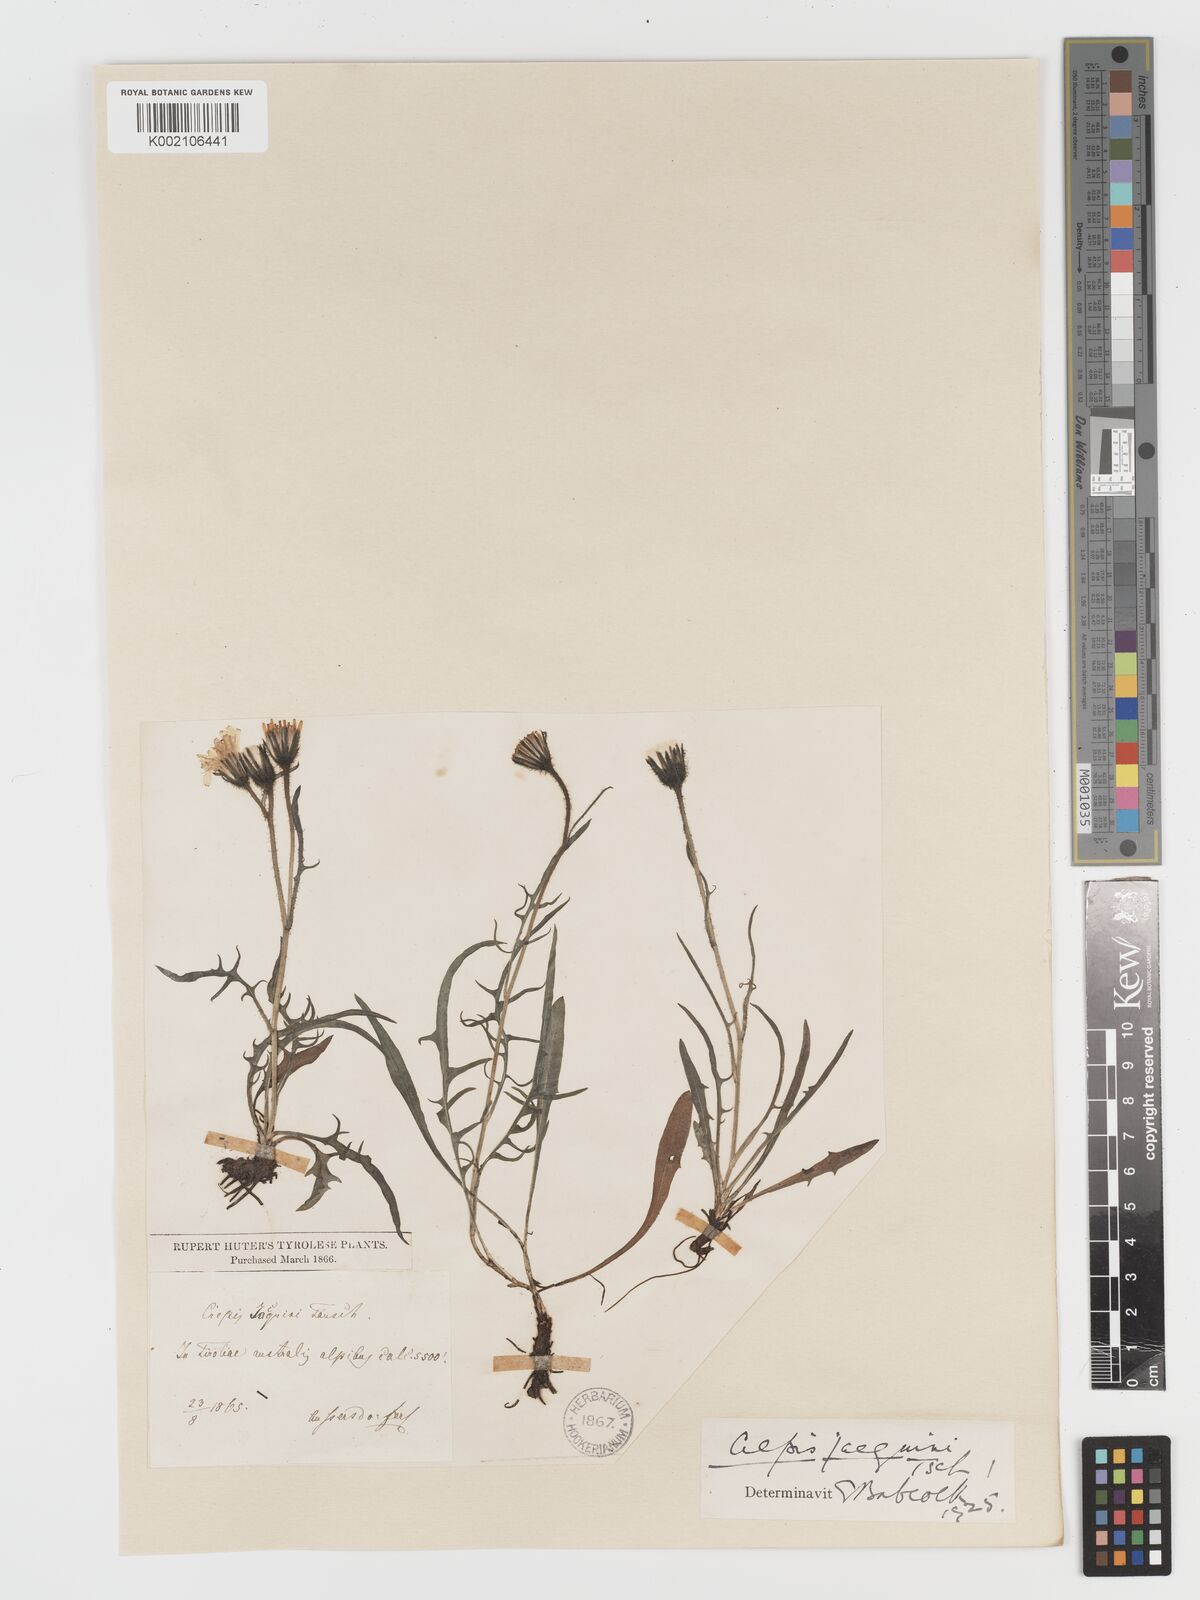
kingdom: Plantae
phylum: Tracheophyta
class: Magnoliopsida
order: Asterales
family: Asteraceae
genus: Crepis
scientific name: Crepis jacquinii
